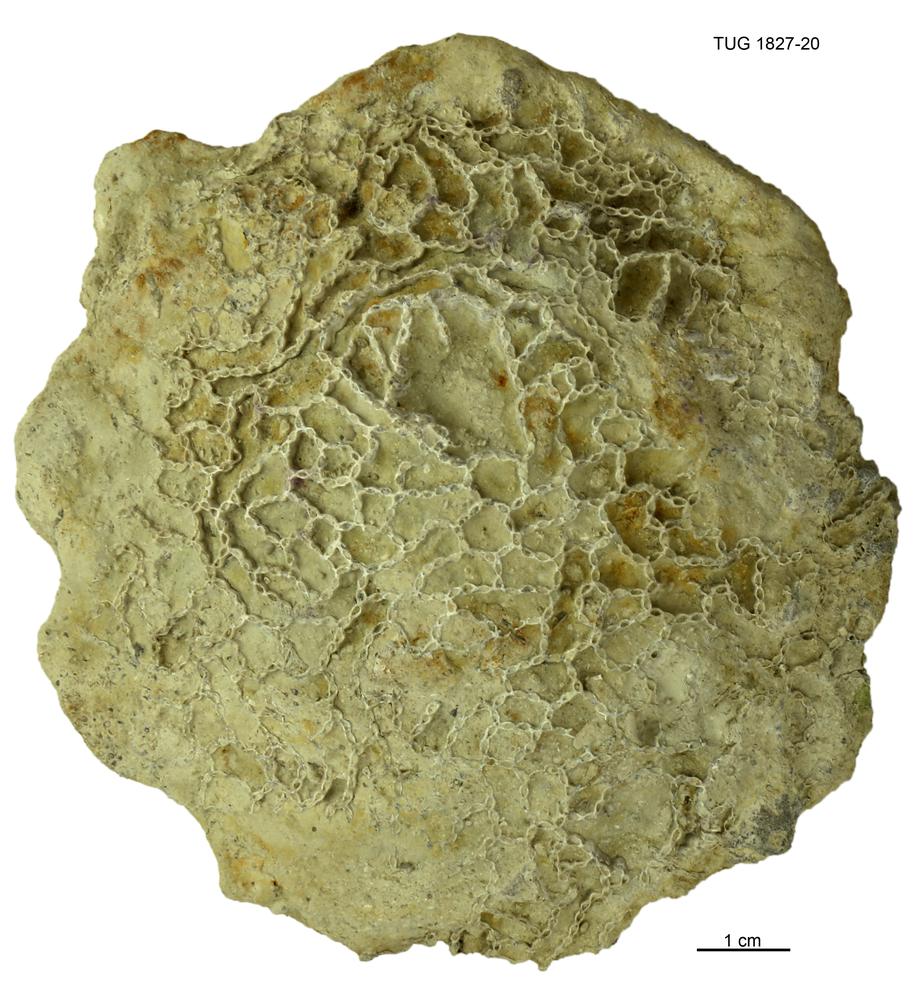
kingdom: Animalia
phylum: Cnidaria
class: Anthozoa
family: Cateniporidae
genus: Catenipora
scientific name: Catenipora
